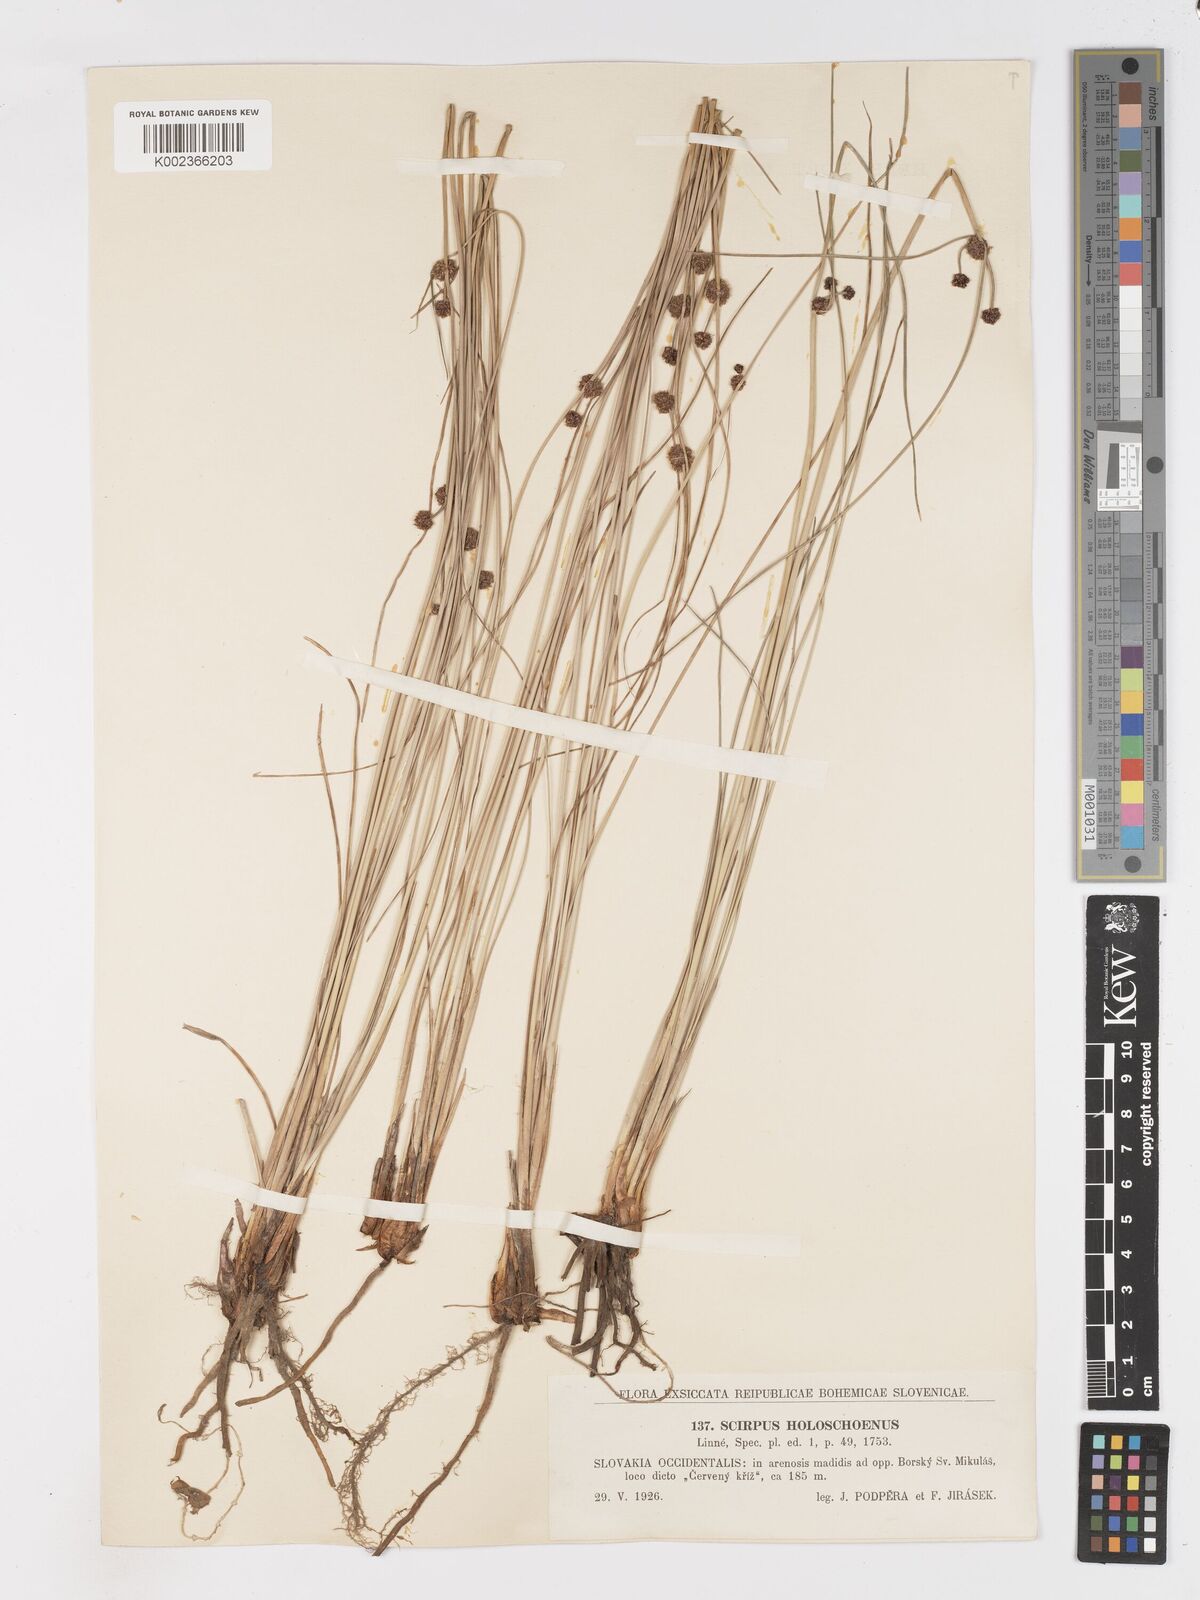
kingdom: Plantae
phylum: Tracheophyta
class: Liliopsida
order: Poales
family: Cyperaceae
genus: Scirpoides
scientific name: Scirpoides holoschoenus
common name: Round-headed club-rush
